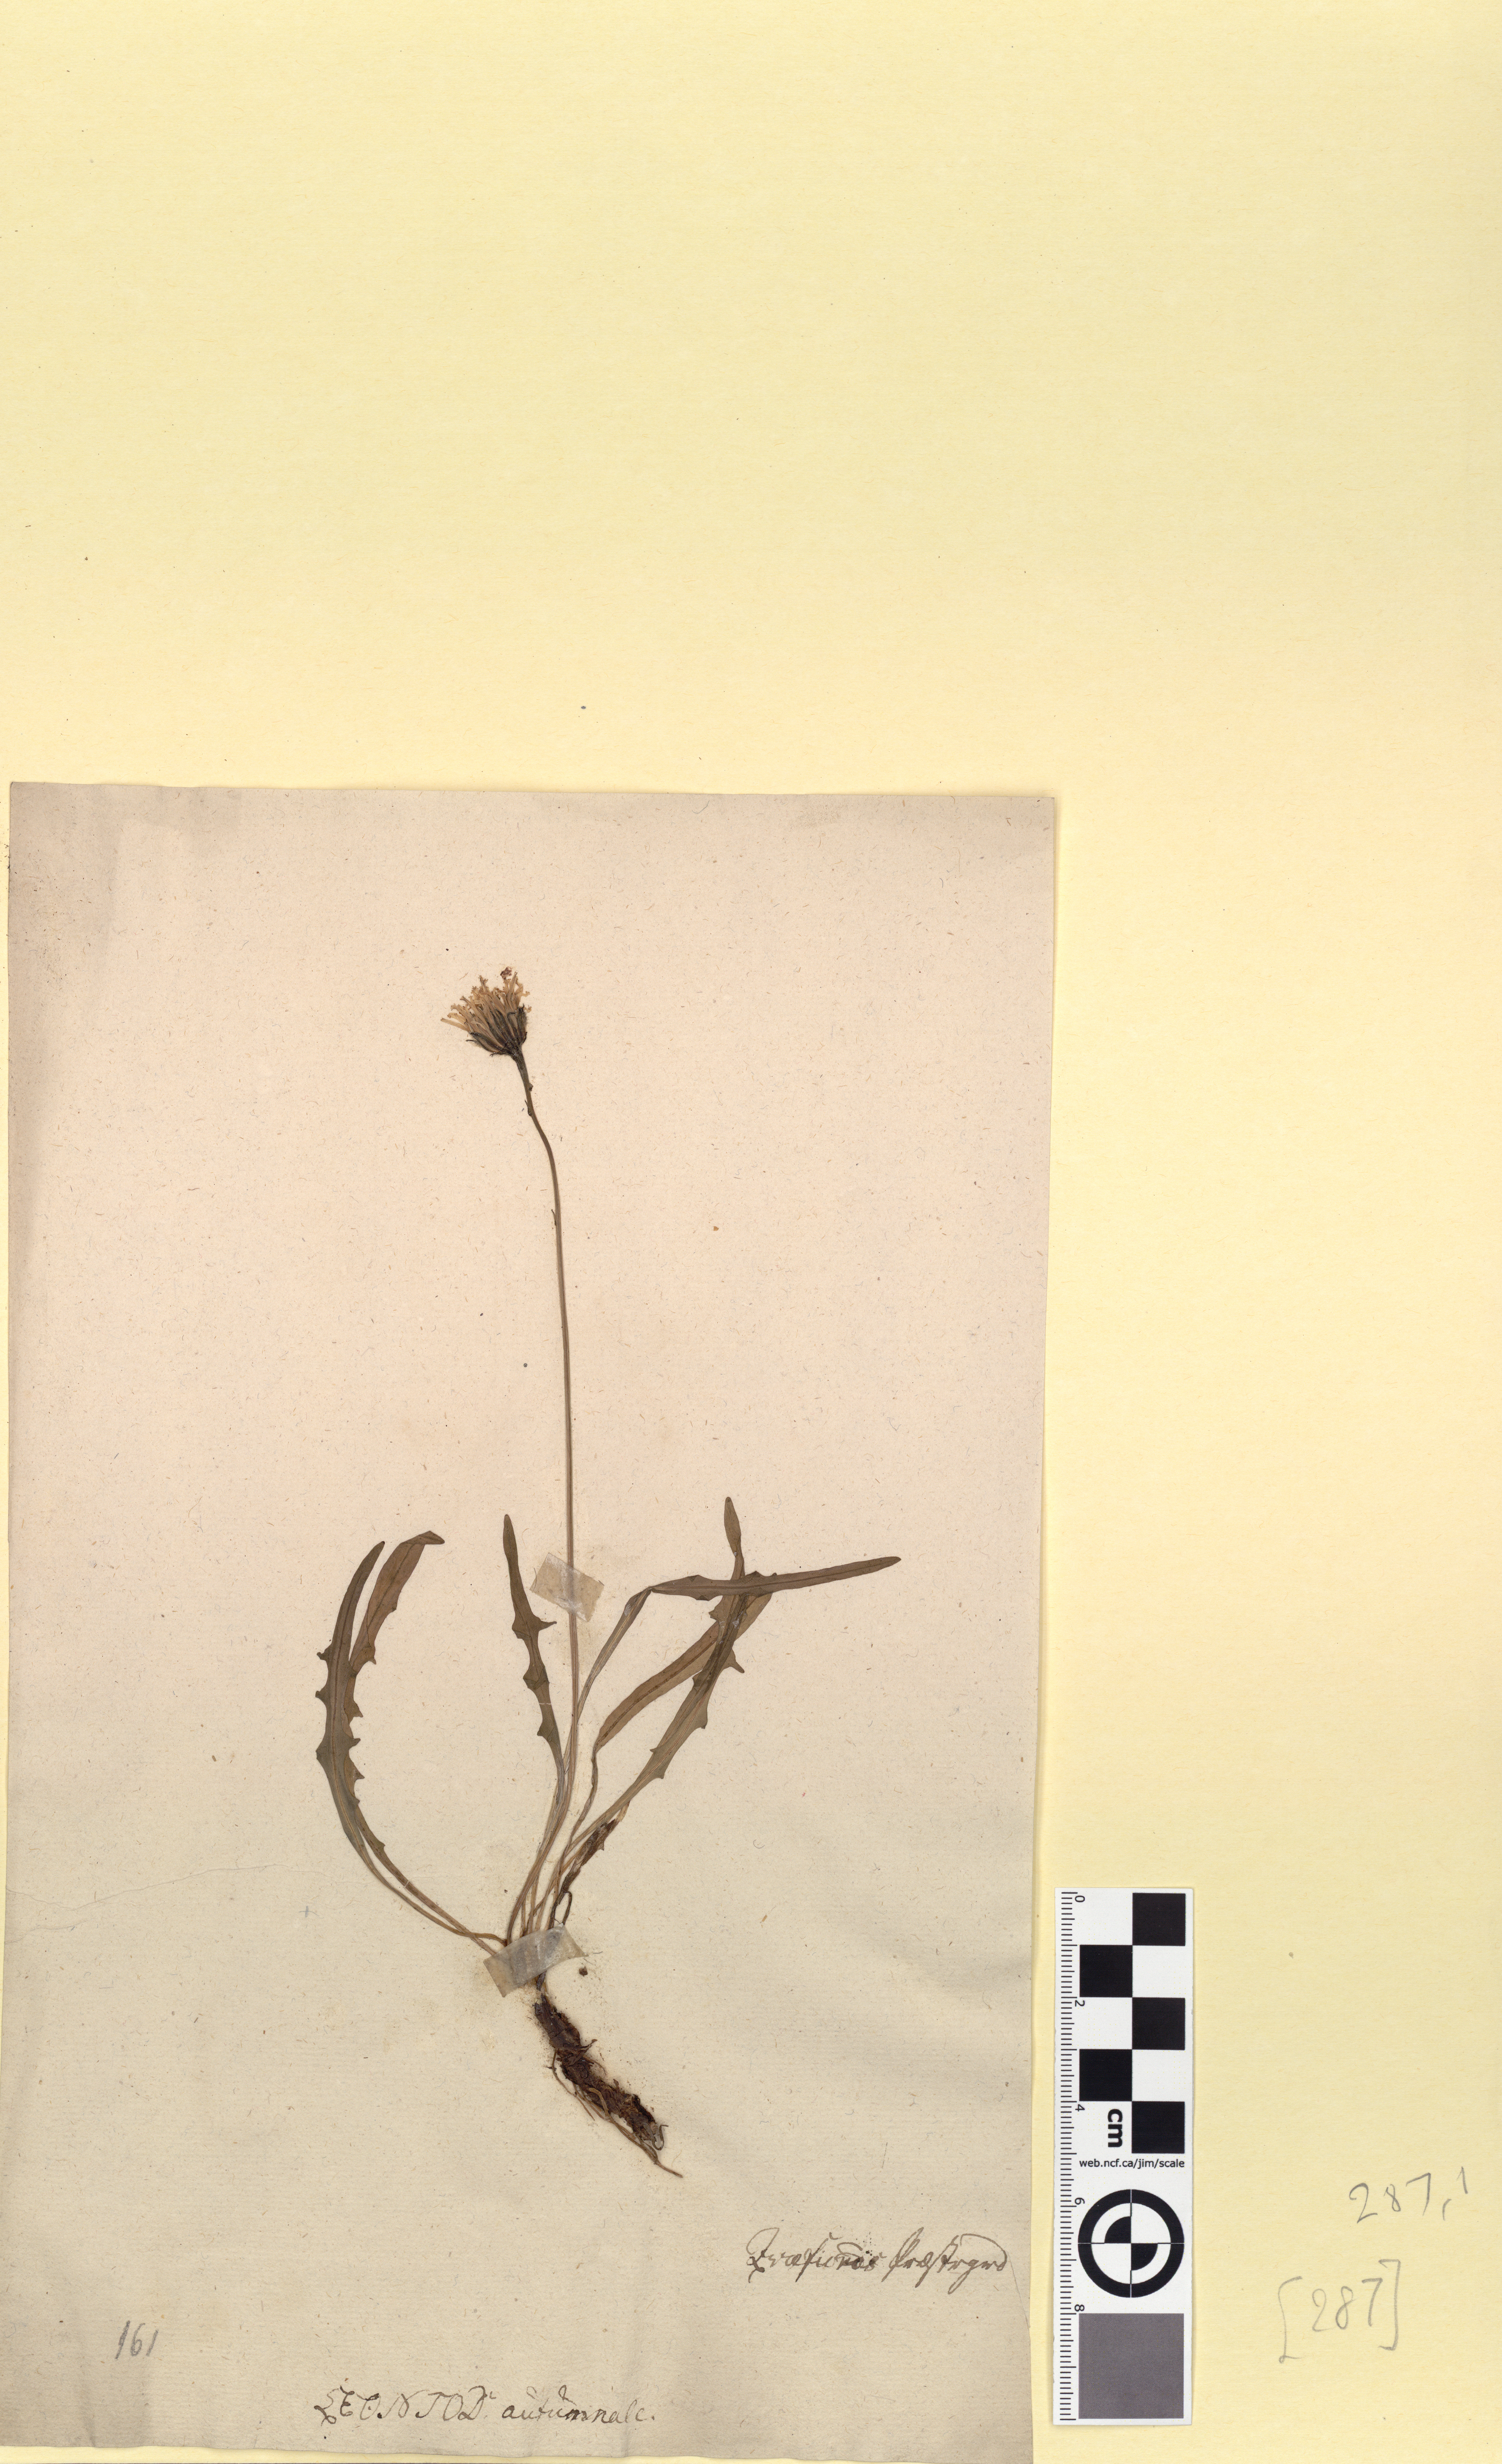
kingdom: Plantae
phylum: Tracheophyta
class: Magnoliopsida
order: Asterales
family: Asteraceae
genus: Scorzoneroides
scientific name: Scorzoneroides autumnalis
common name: Autumn hawkbit
